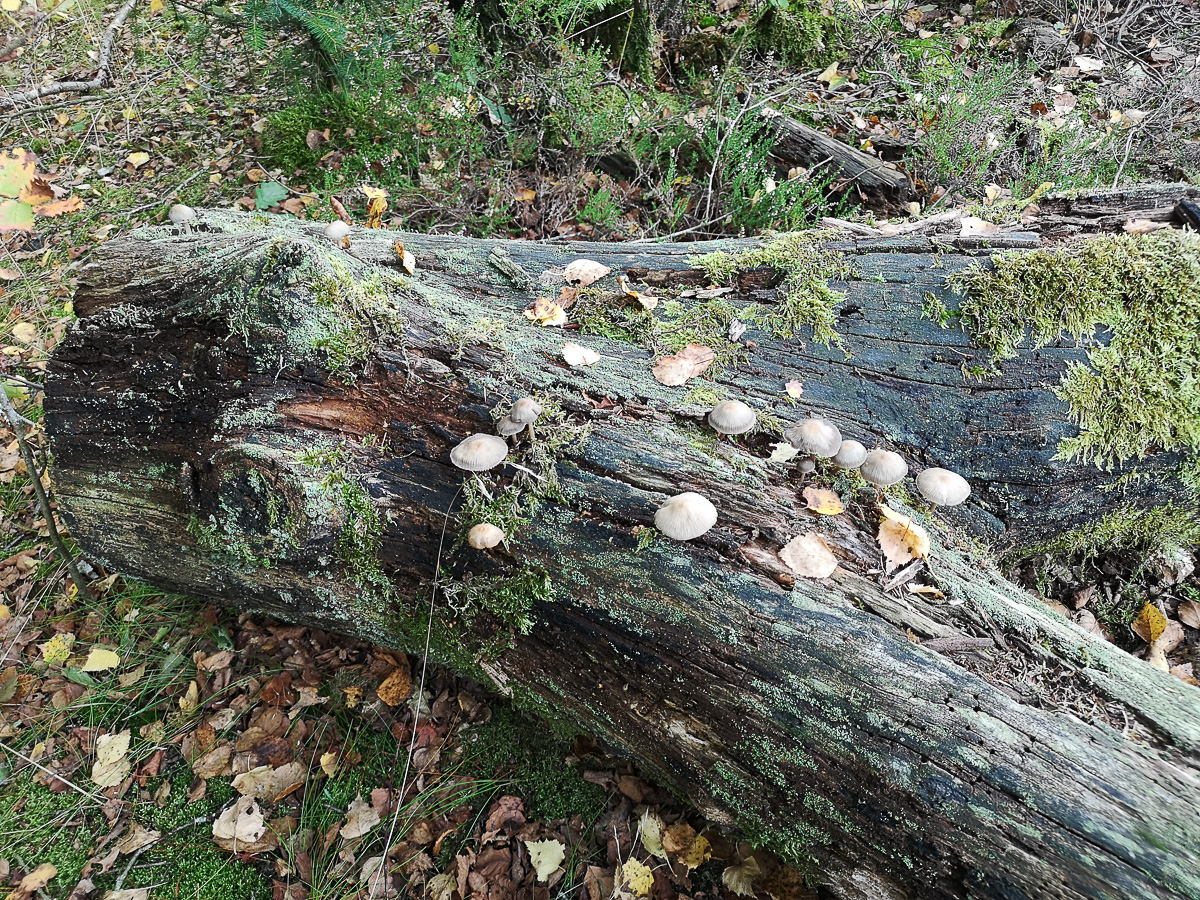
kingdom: Fungi
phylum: Basidiomycota
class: Agaricomycetes
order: Agaricales
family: Mycenaceae
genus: Mycena
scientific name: Mycena galericulata
